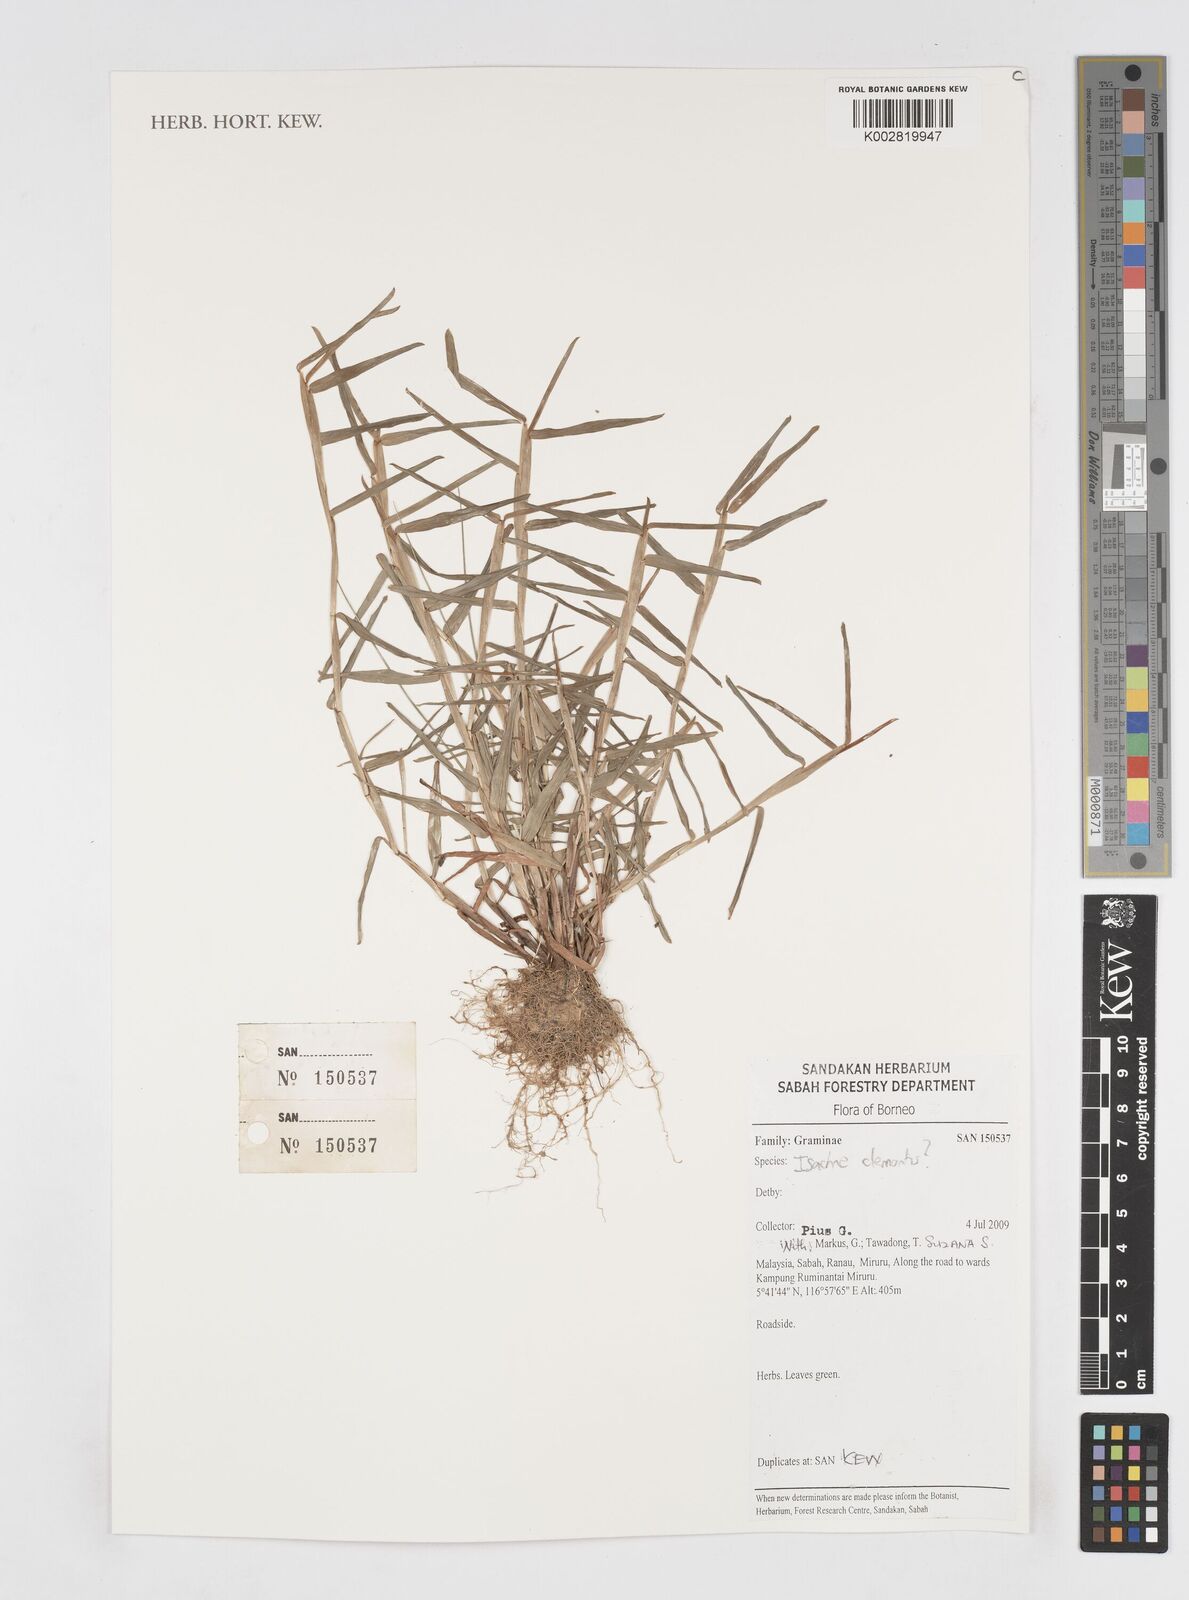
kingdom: Plantae
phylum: Tracheophyta
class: Liliopsida
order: Poales
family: Poaceae
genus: Isachne
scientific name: Isachne clementis
